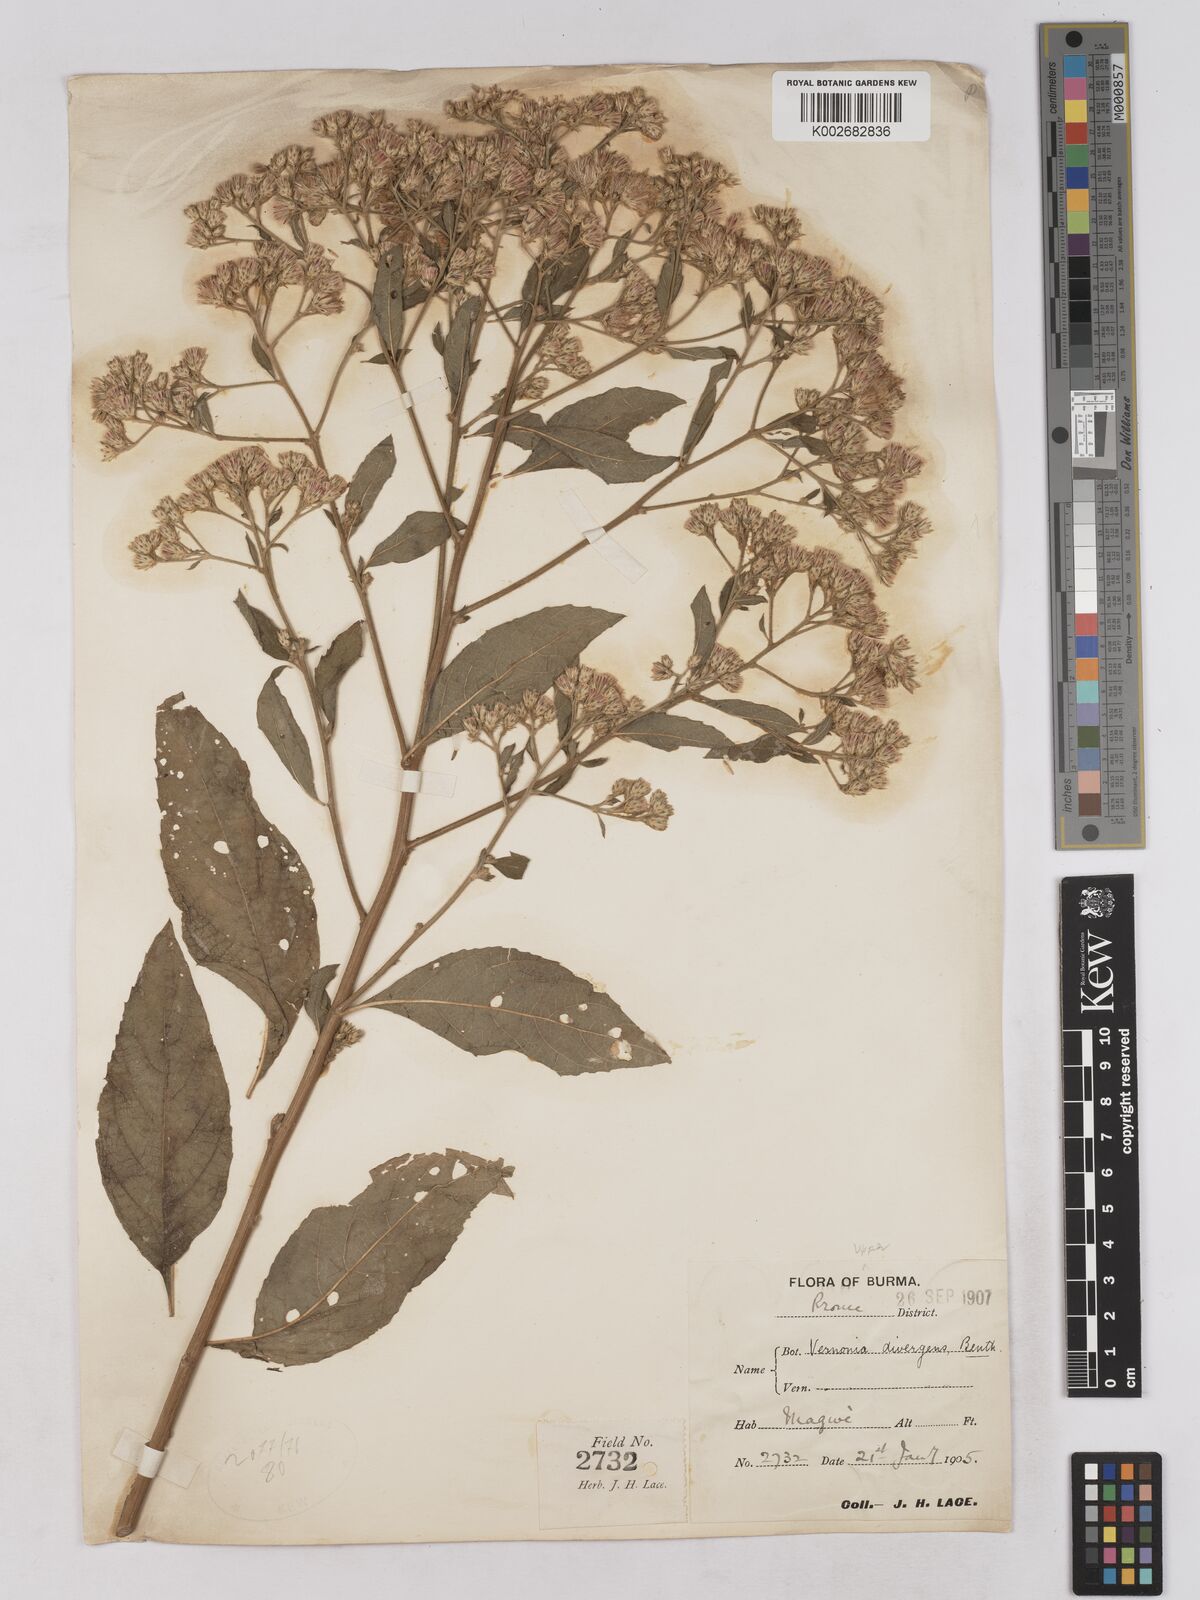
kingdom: Plantae
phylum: Tracheophyta
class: Magnoliopsida
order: Asterales
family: Asteraceae
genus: Acilepis
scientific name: Acilepis divergens
